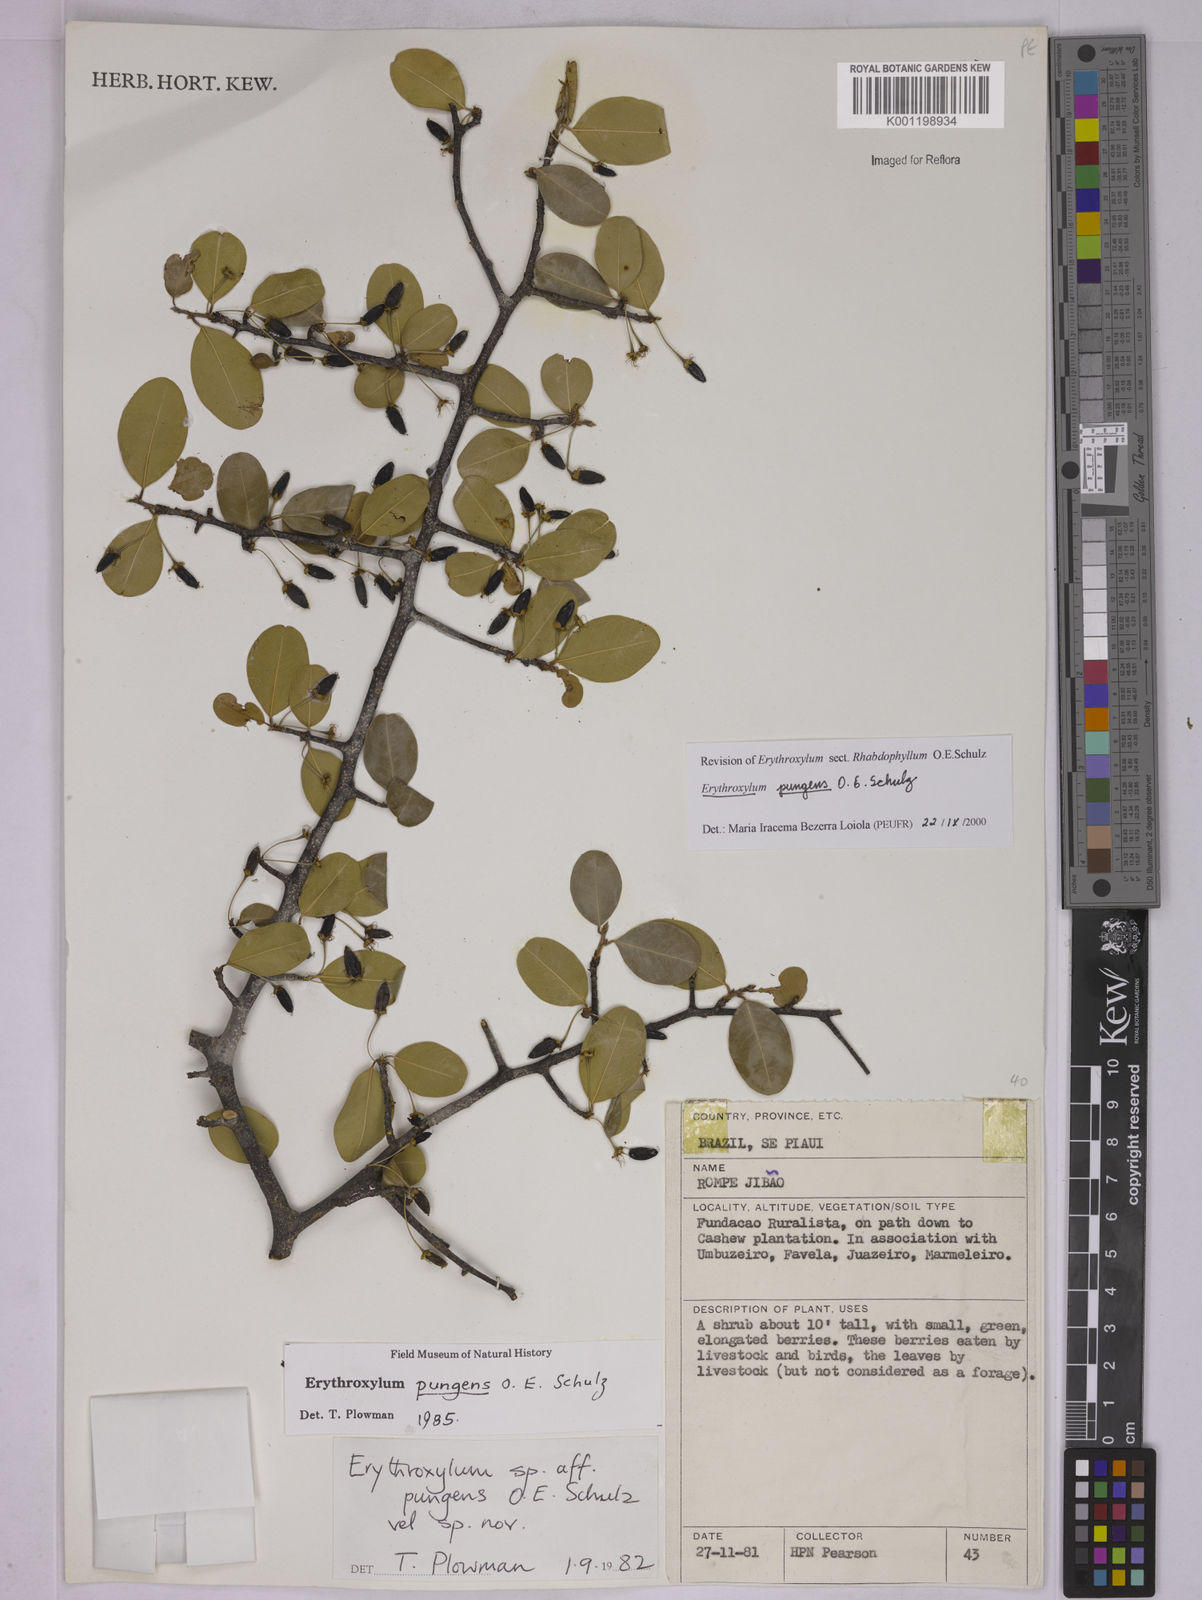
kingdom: Plantae
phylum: Tracheophyta
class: Magnoliopsida
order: Malpighiales
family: Erythroxylaceae
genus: Erythroxylum
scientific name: Erythroxylum pungens
